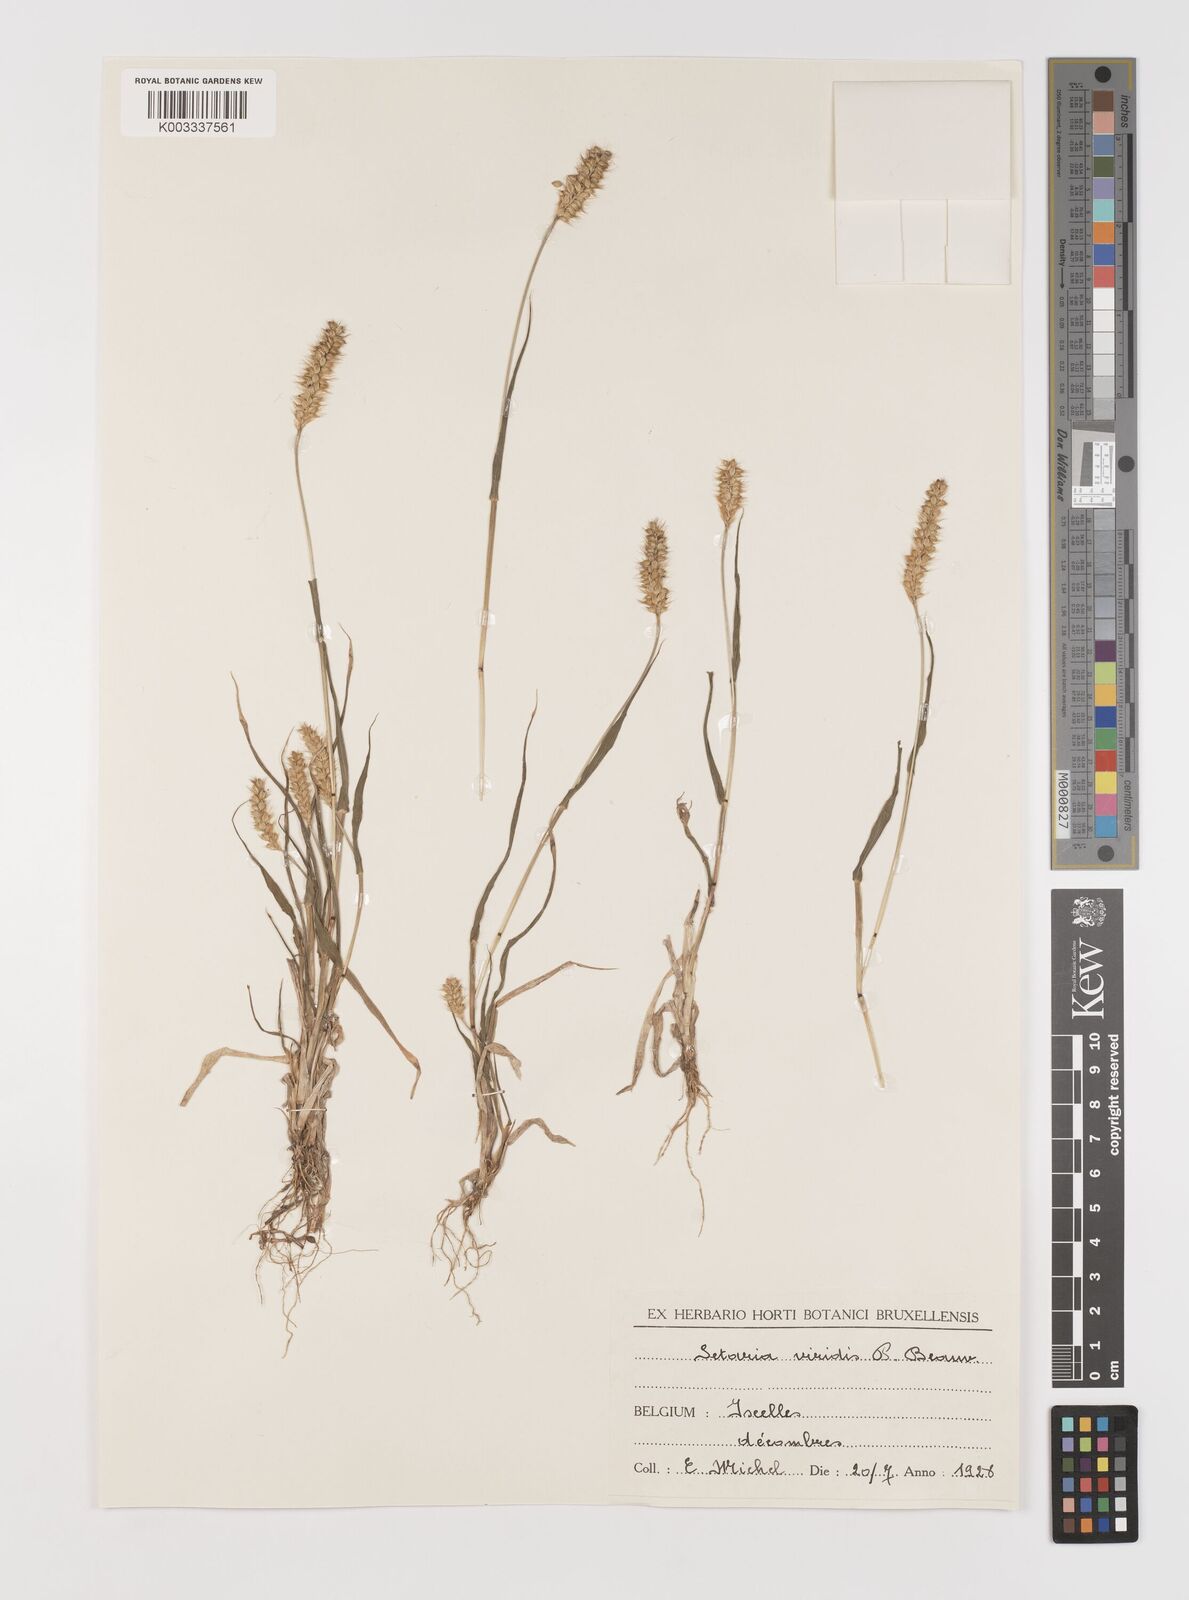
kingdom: Plantae
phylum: Tracheophyta
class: Liliopsida
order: Poales
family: Poaceae
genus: Setaria
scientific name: Setaria pumila
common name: Yellow bristle-grass
